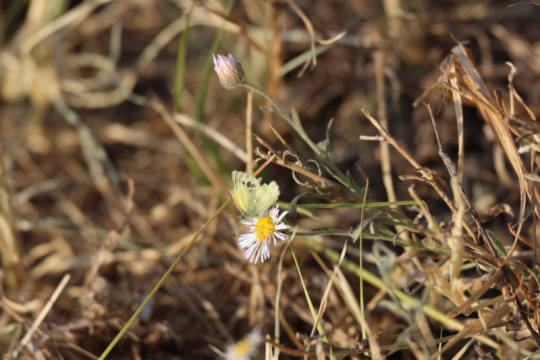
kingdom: Animalia
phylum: Arthropoda
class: Insecta
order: Lepidoptera
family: Pieridae
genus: Nathalis
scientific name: Nathalis iole
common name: Dainty Sulphur
